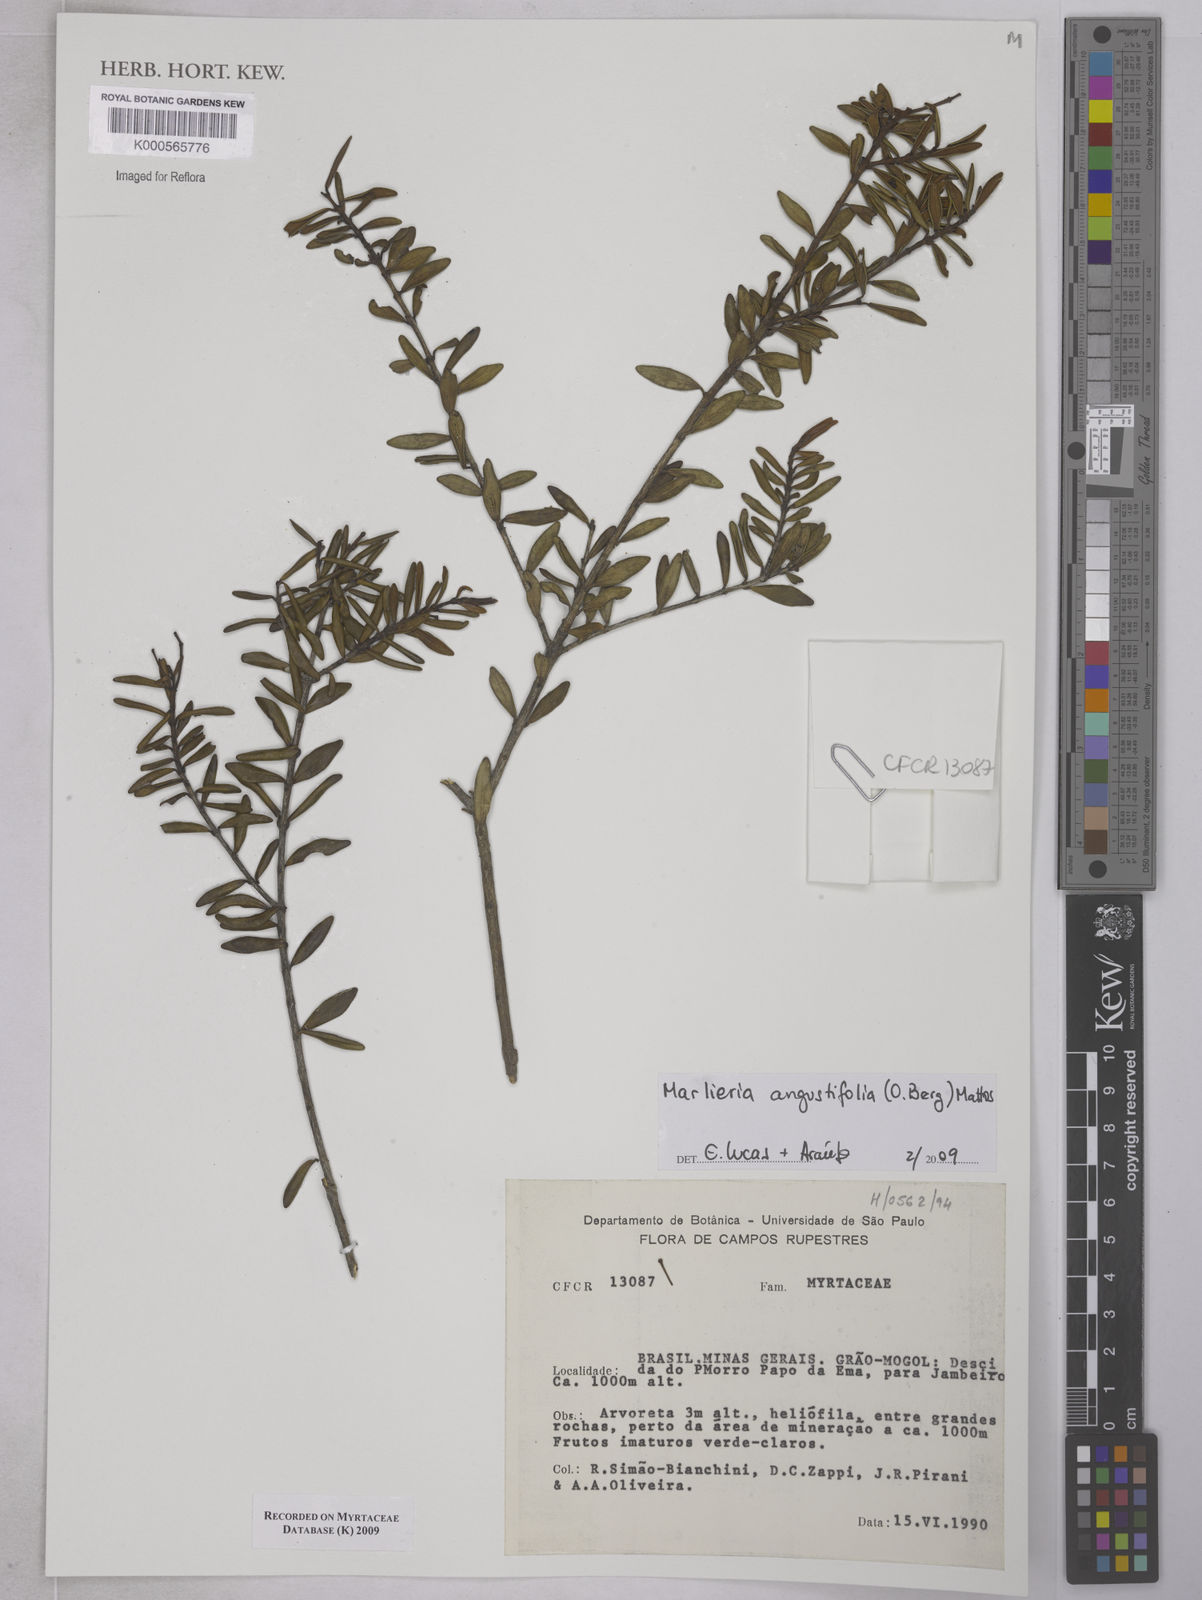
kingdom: Plantae
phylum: Tracheophyta
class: Magnoliopsida
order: Myrtales
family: Myrtaceae
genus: Myrcia
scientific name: Myrcia lenheirensis
